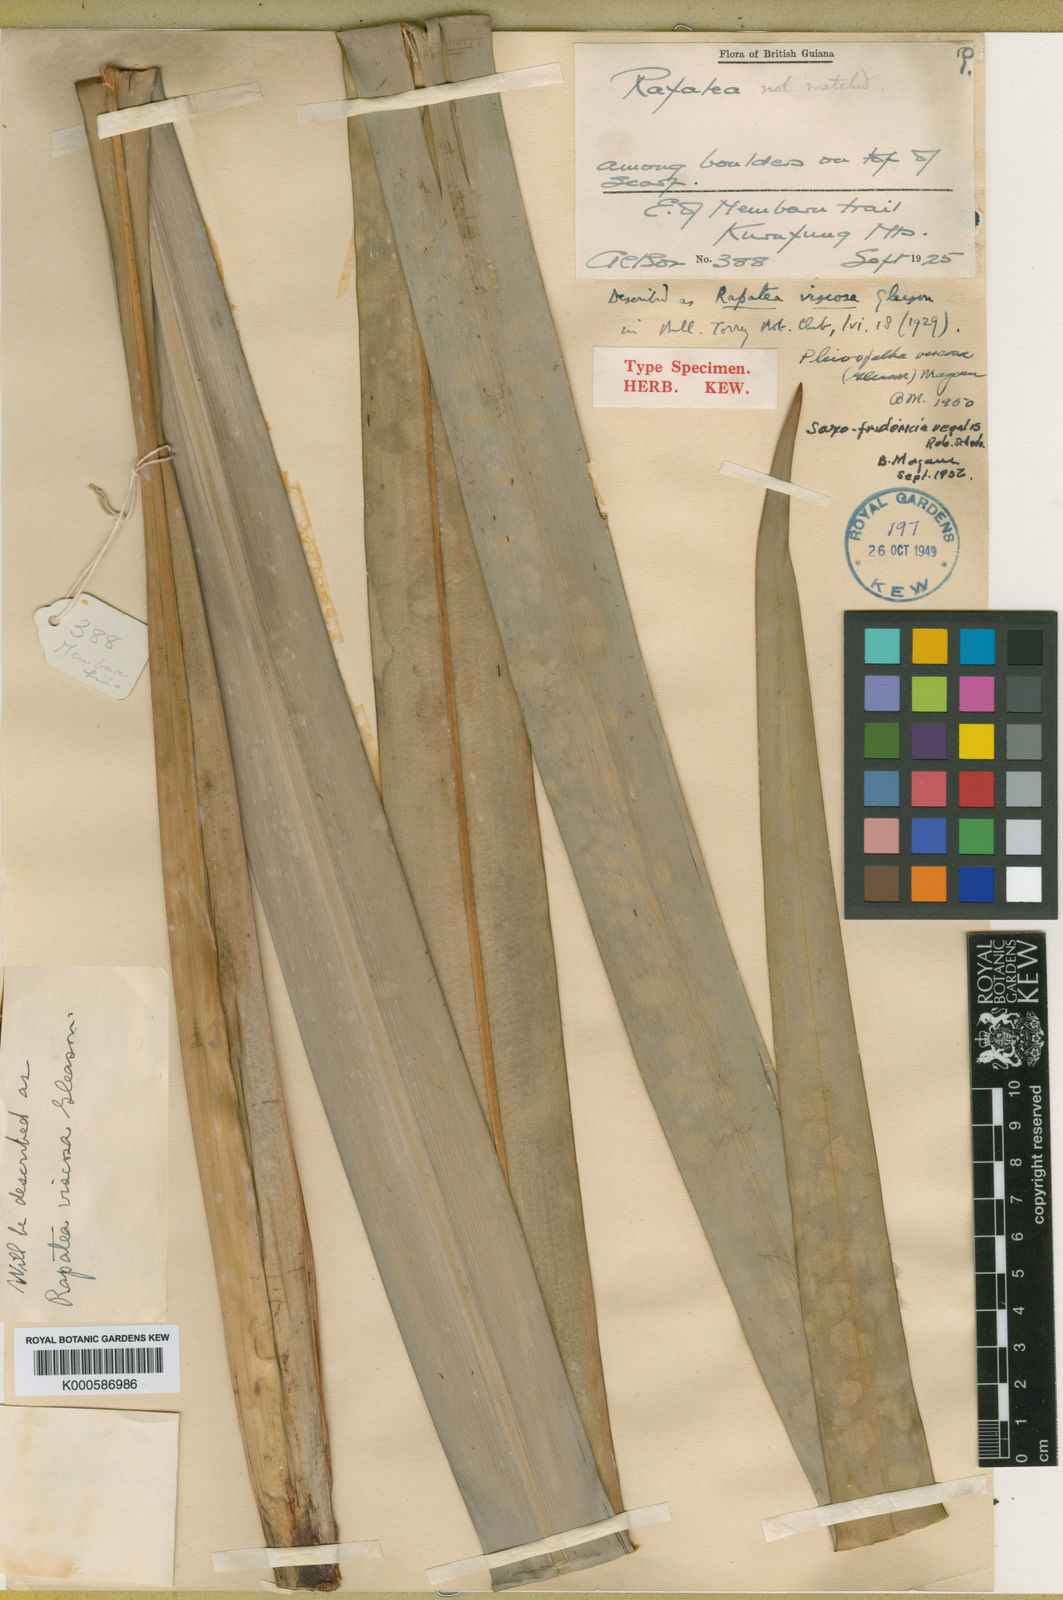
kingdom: Plantae
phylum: Tracheophyta
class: Liliopsida
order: Poales
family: Rapateaceae
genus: Saxofridericia
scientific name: Saxofridericia regalis
